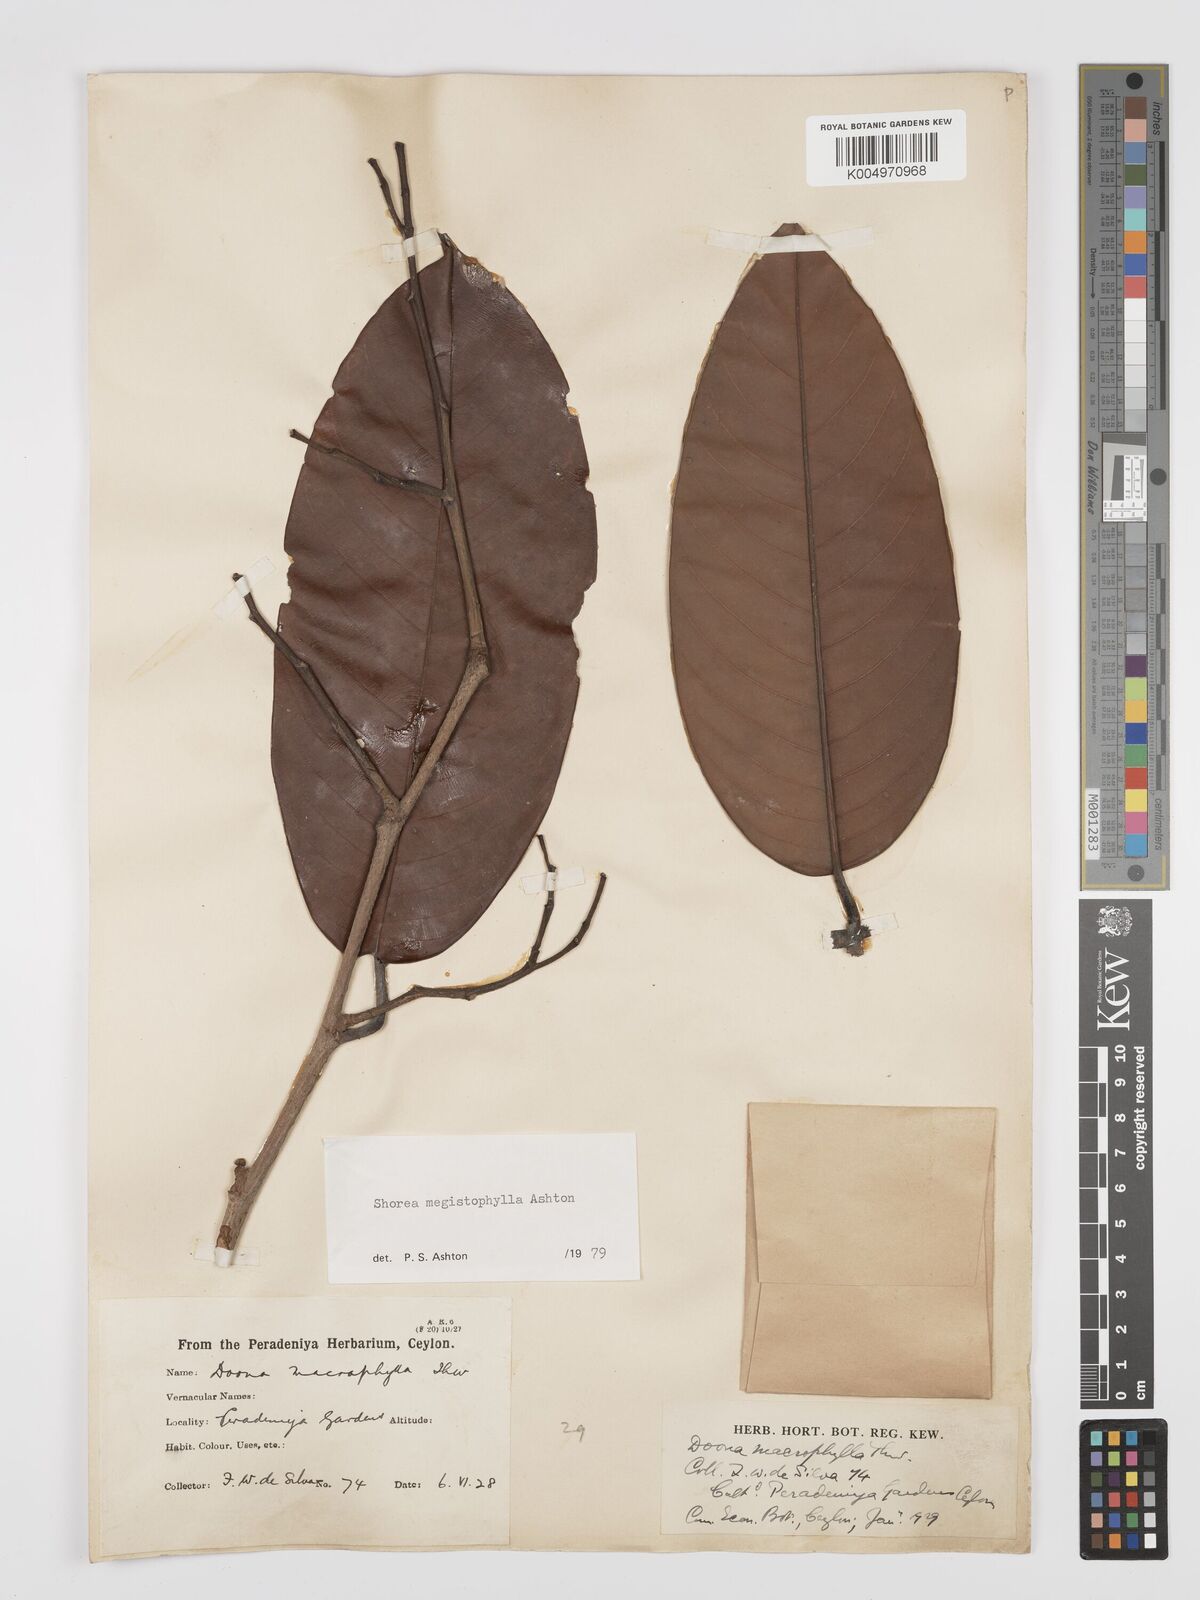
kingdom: Plantae
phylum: Tracheophyta
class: Magnoliopsida
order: Malvales
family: Dipterocarpaceae
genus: Doona
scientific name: Doona macrophylla
